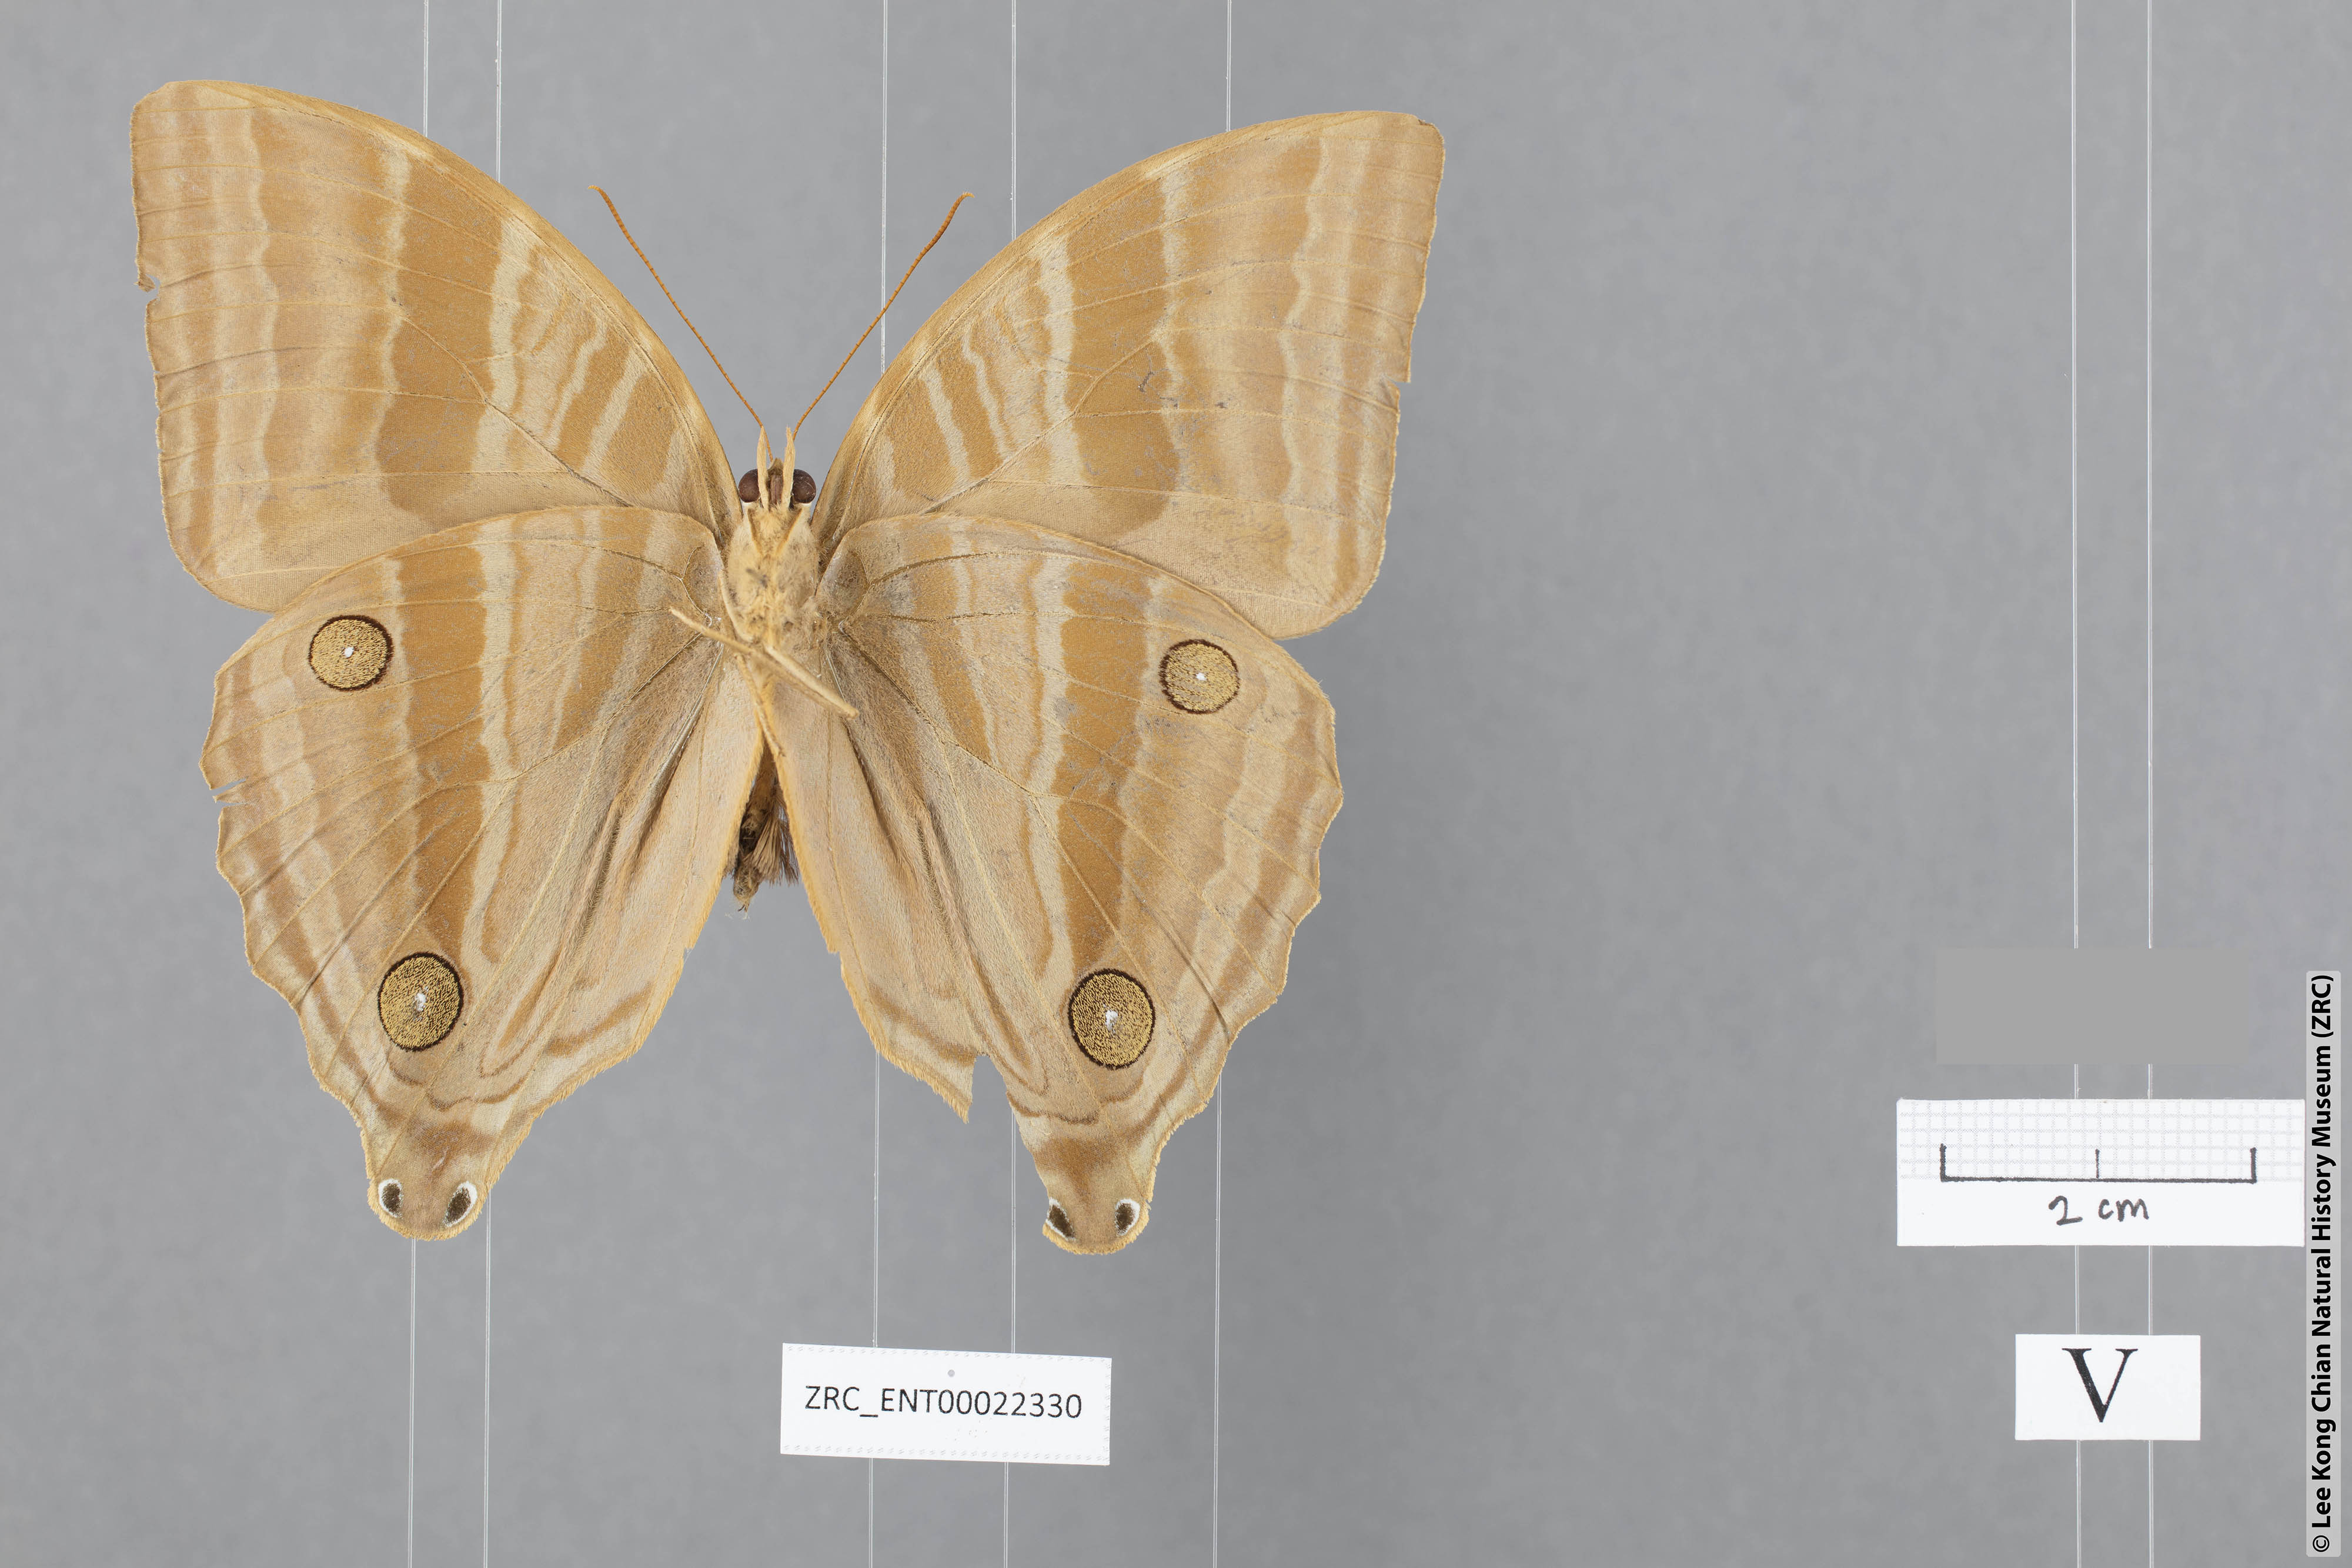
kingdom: Animalia
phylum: Arthropoda
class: Insecta
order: Lepidoptera
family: Nymphalidae
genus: Amathusia
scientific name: Amathusia binghami
